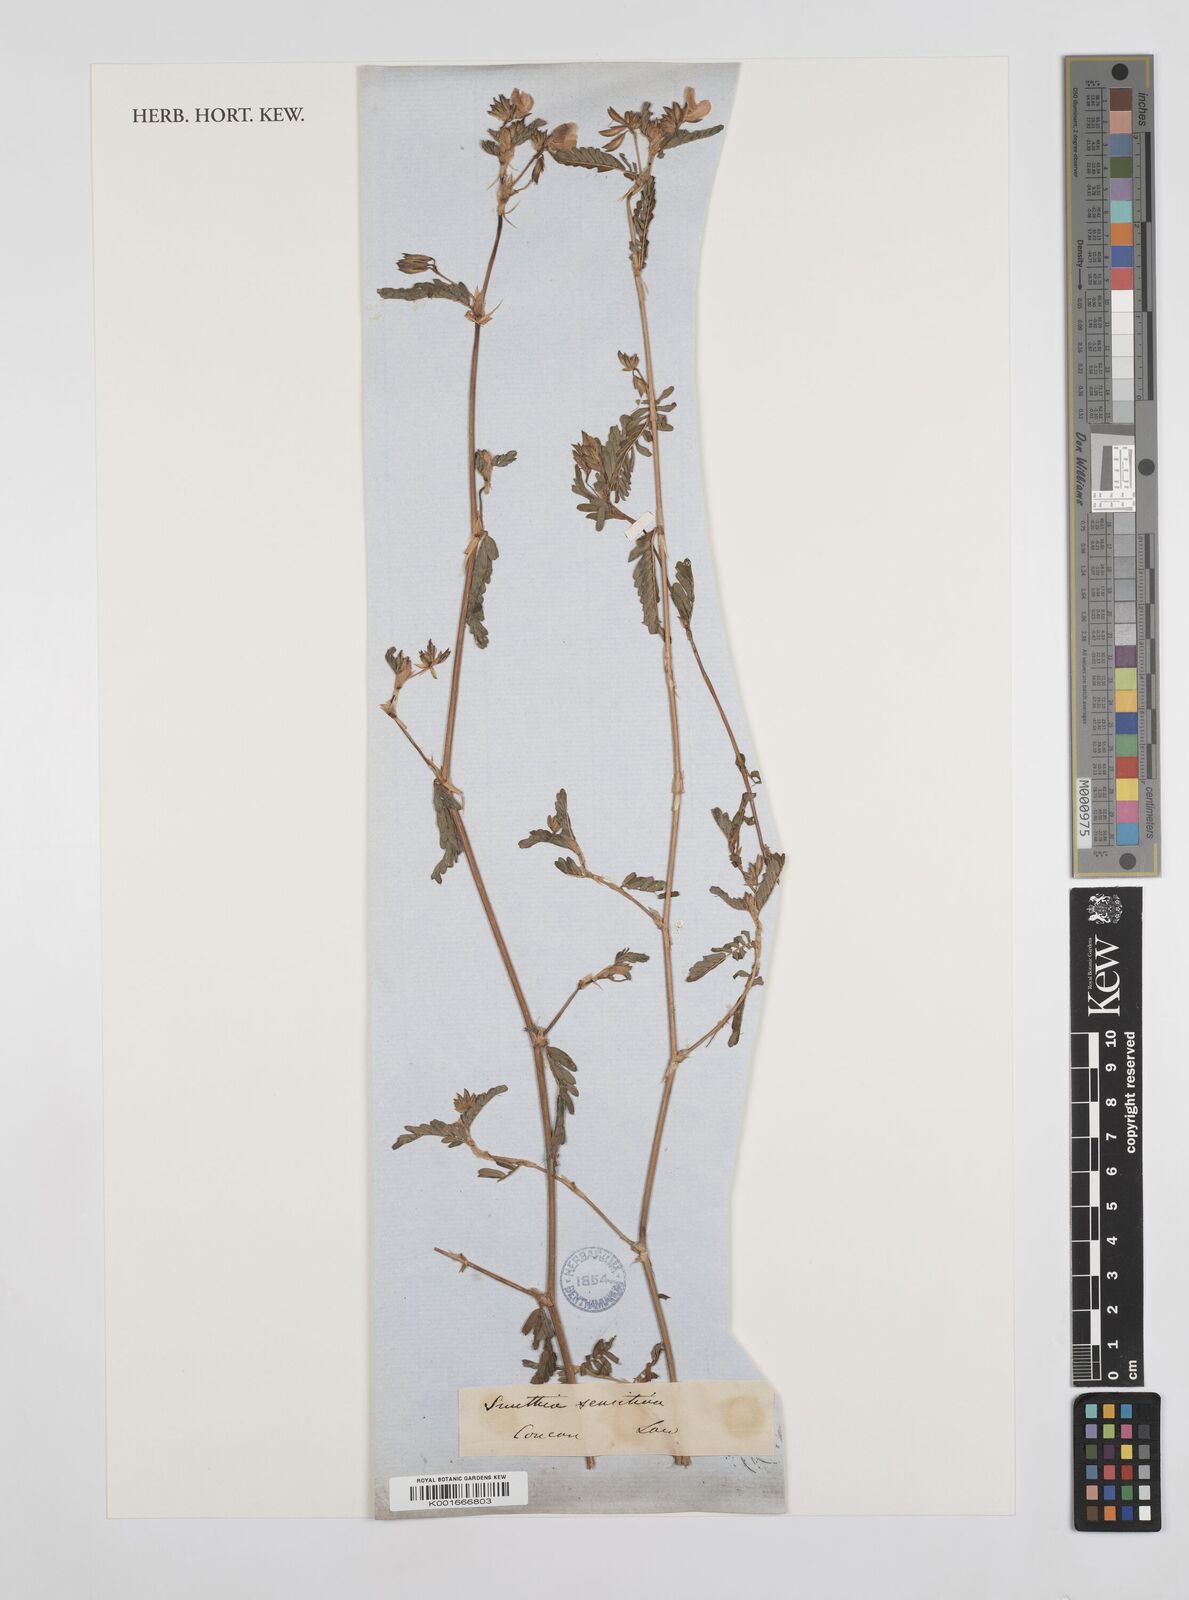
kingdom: Plantae
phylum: Tracheophyta
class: Magnoliopsida
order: Fabales
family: Fabaceae
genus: Smithia
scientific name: Smithia
